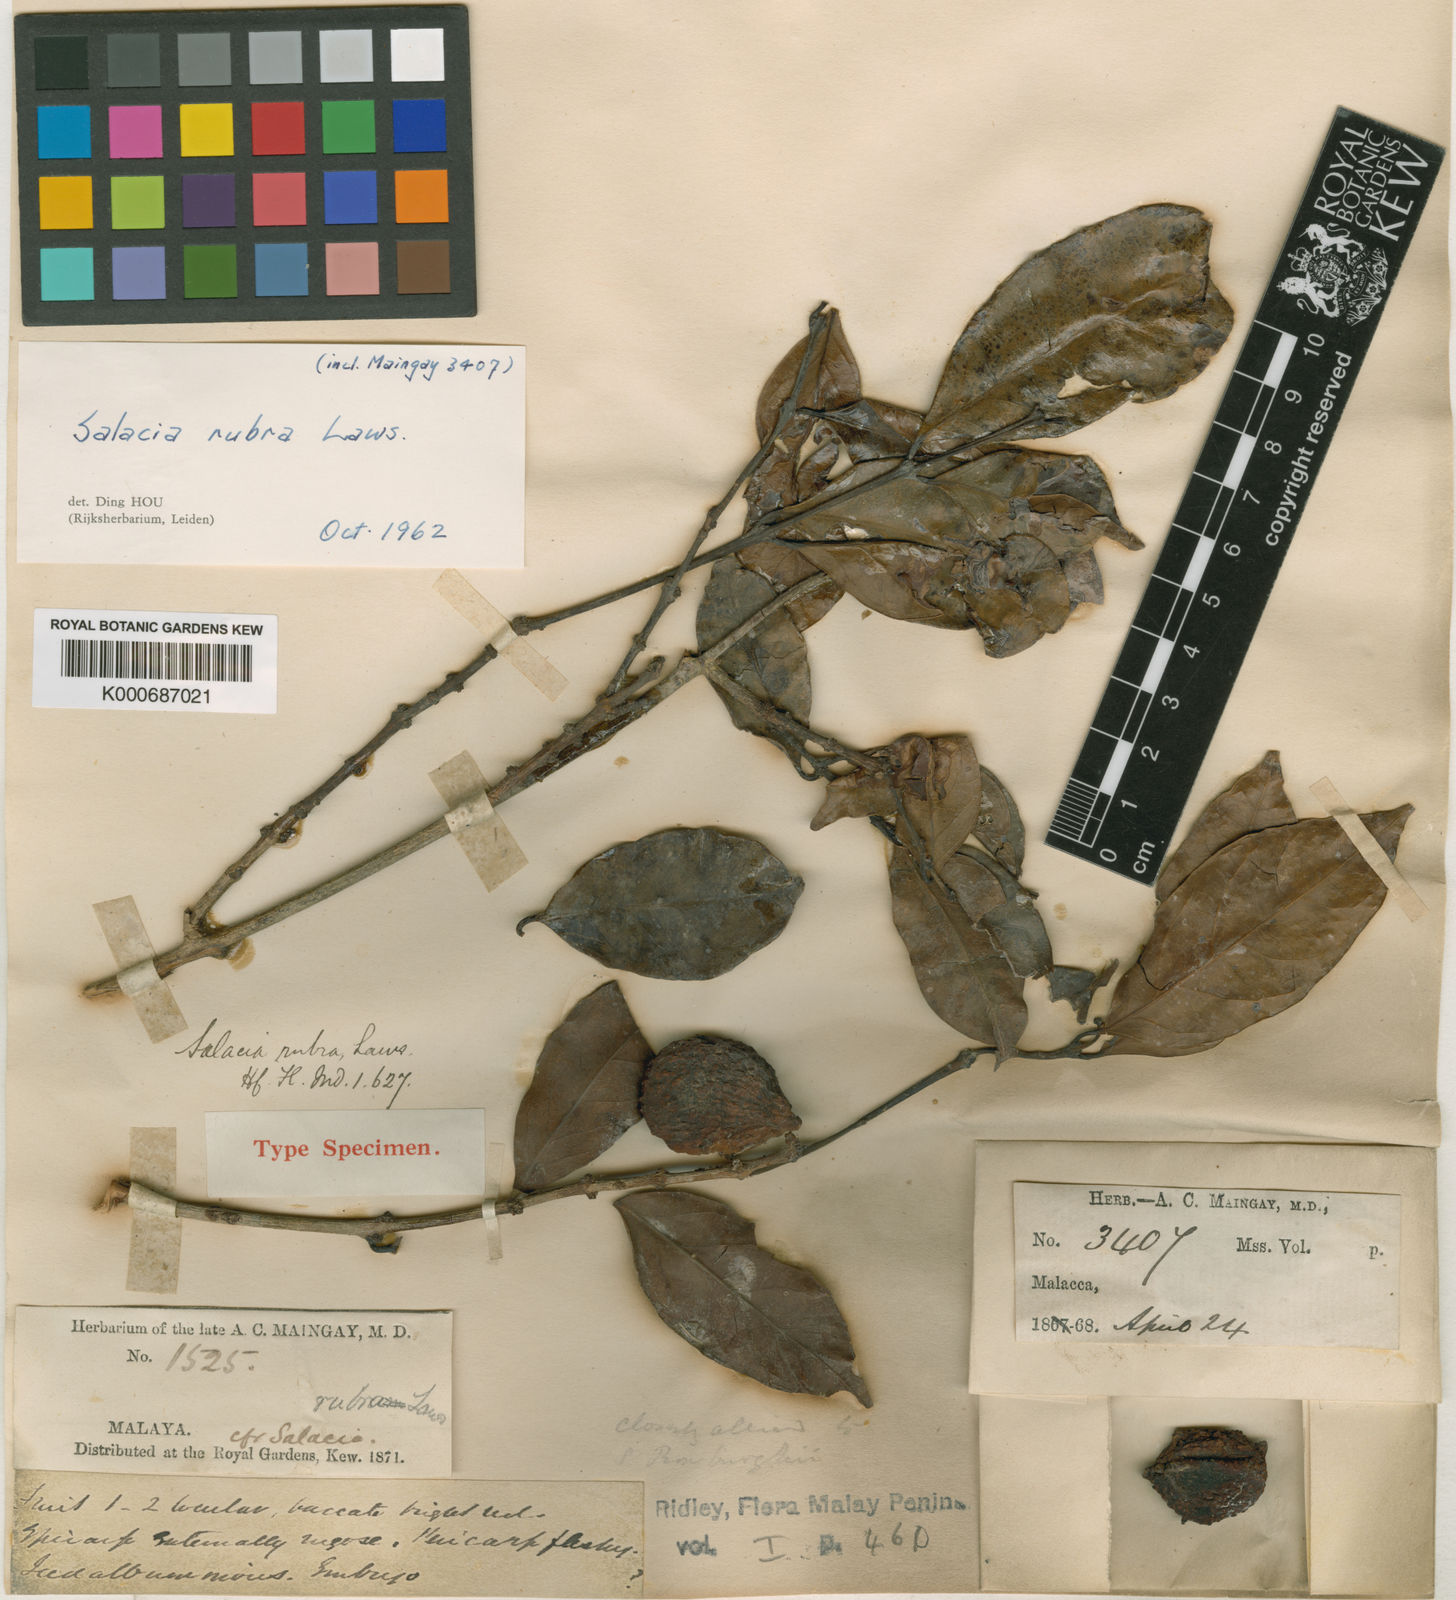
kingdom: Plantae
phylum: Tracheophyta
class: Magnoliopsida
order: Celastrales
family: Celastraceae
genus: Salacia
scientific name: Salacia exsculpta
